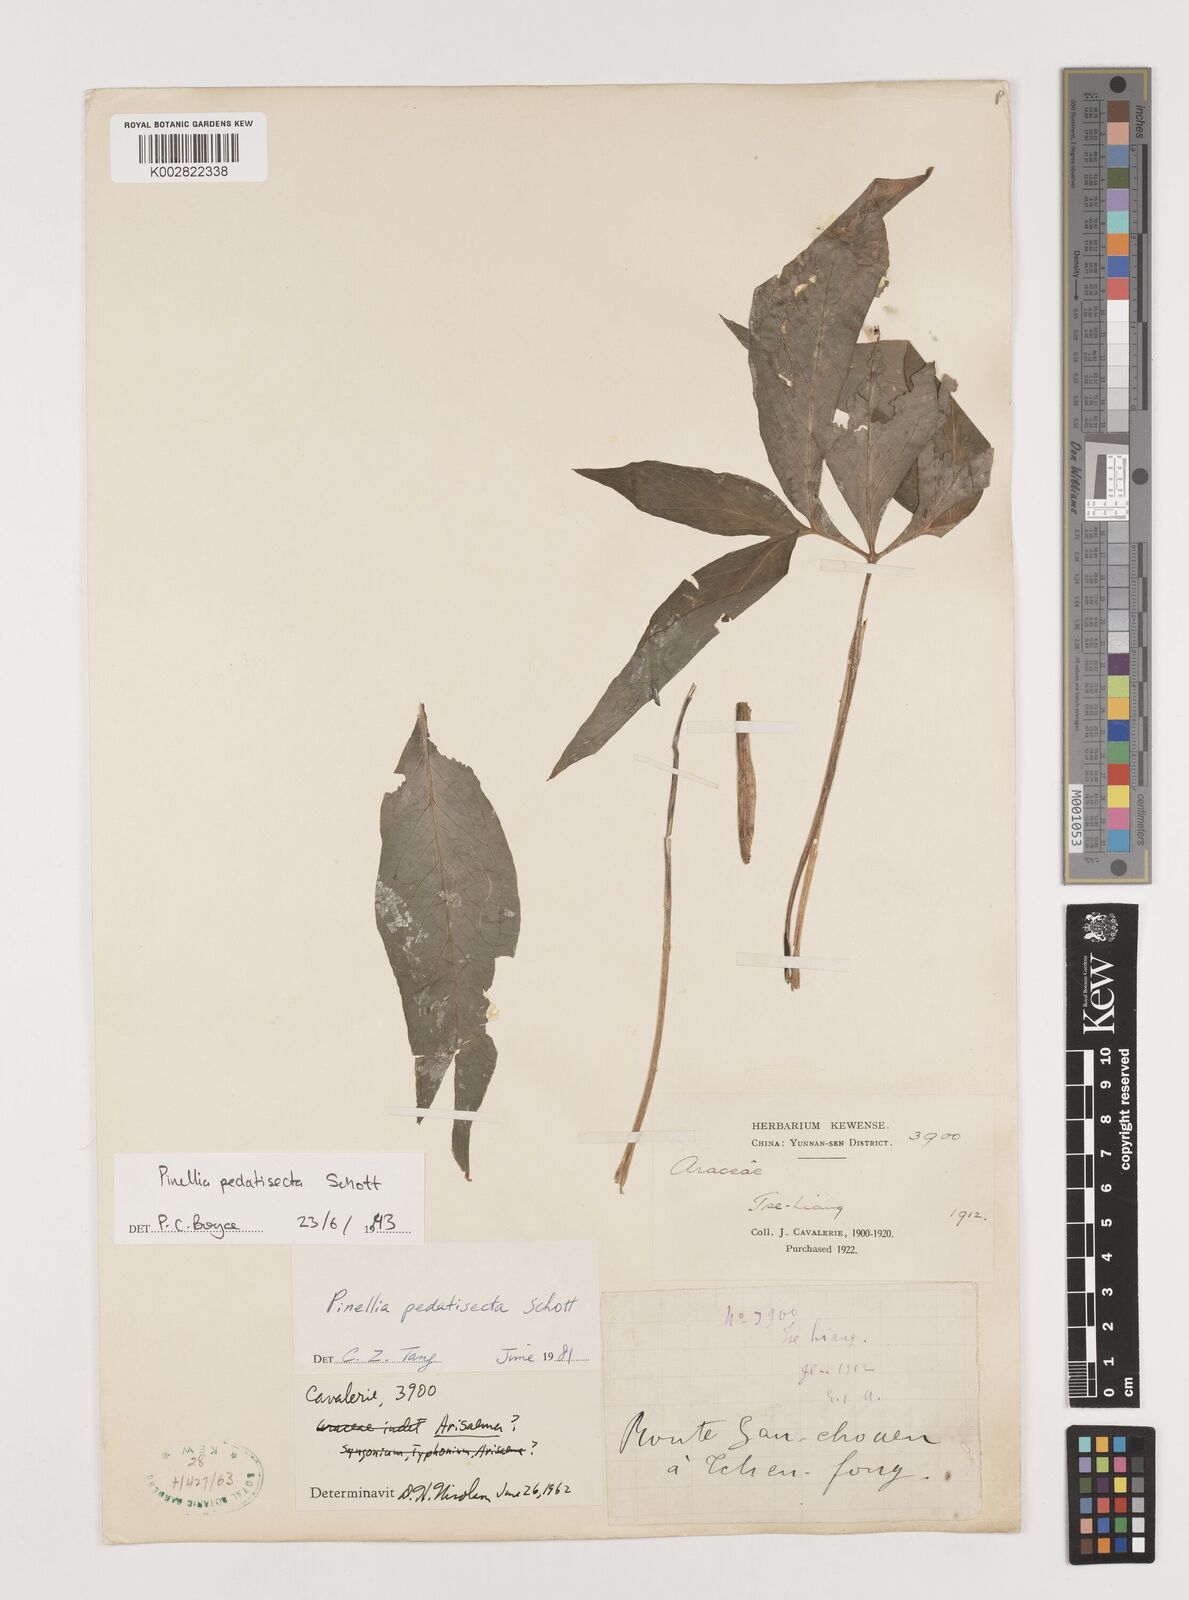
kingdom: Plantae
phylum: Tracheophyta
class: Liliopsida
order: Alismatales
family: Araceae
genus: Pinellia
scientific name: Pinellia pedatisecta
